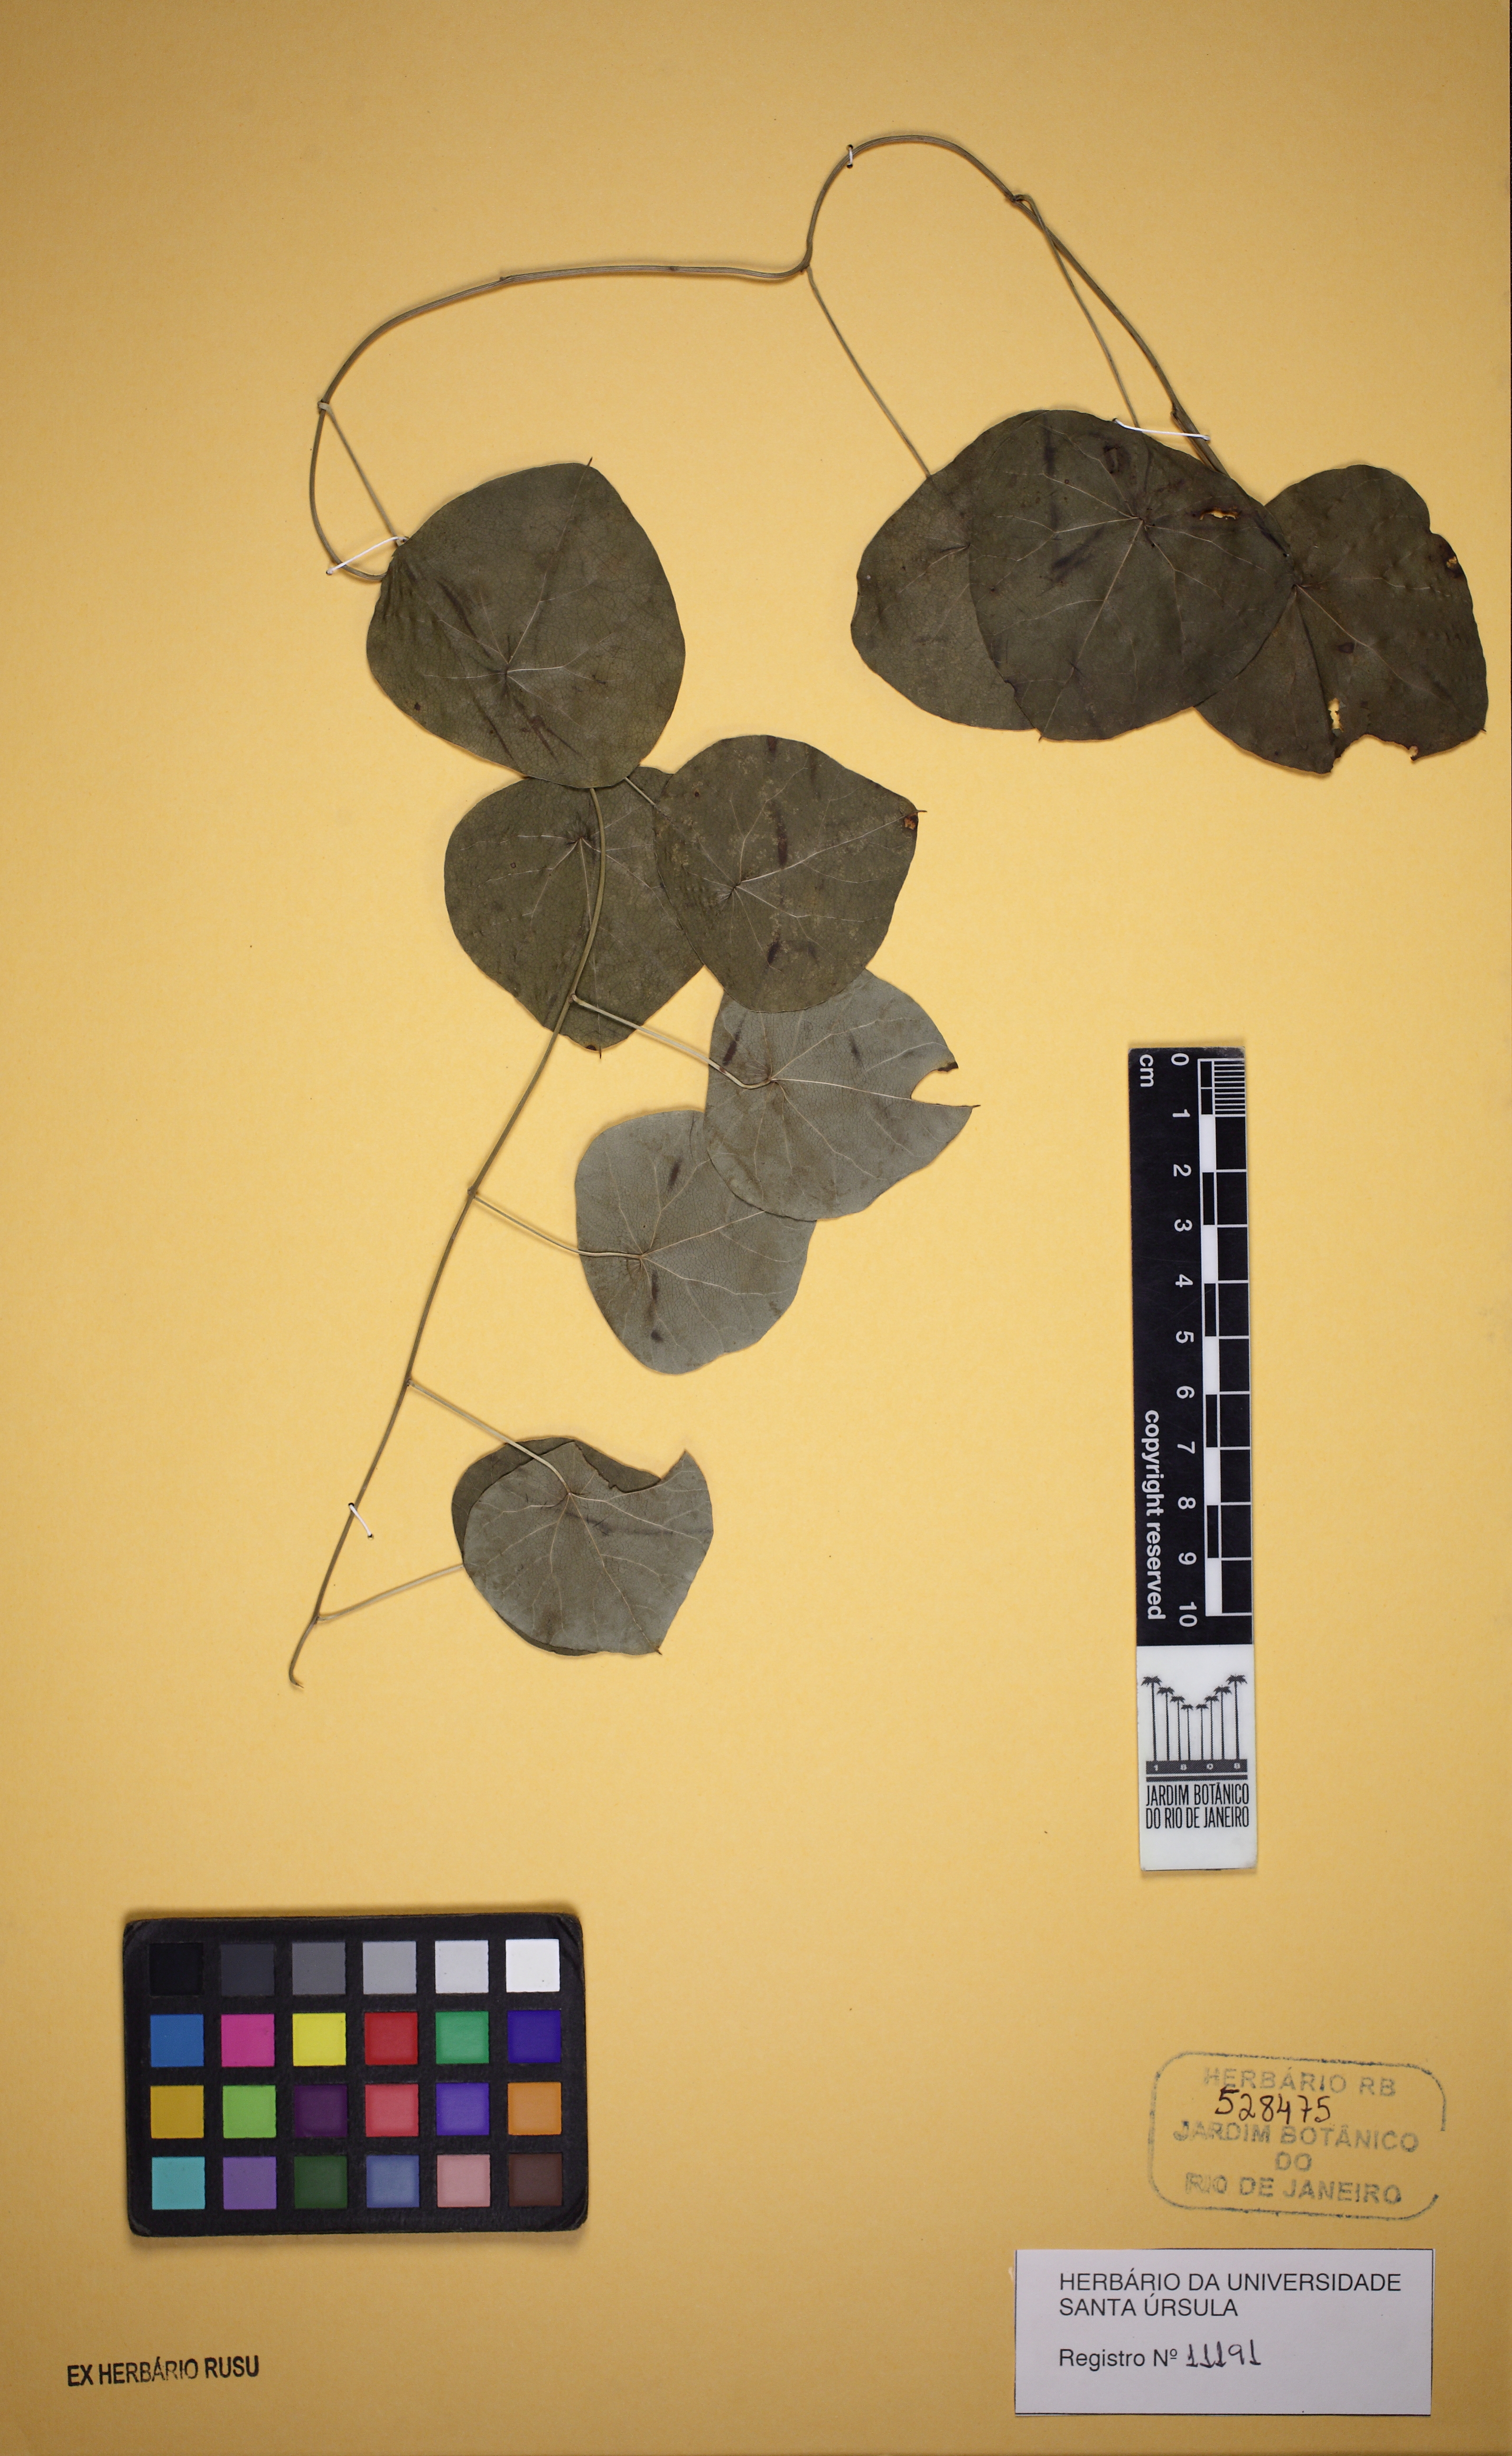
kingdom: Plantae
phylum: Tracheophyta
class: Magnoliopsida
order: Ranunculales
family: Menispermaceae
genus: Cissampelos
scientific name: Cissampelos glaberrima
